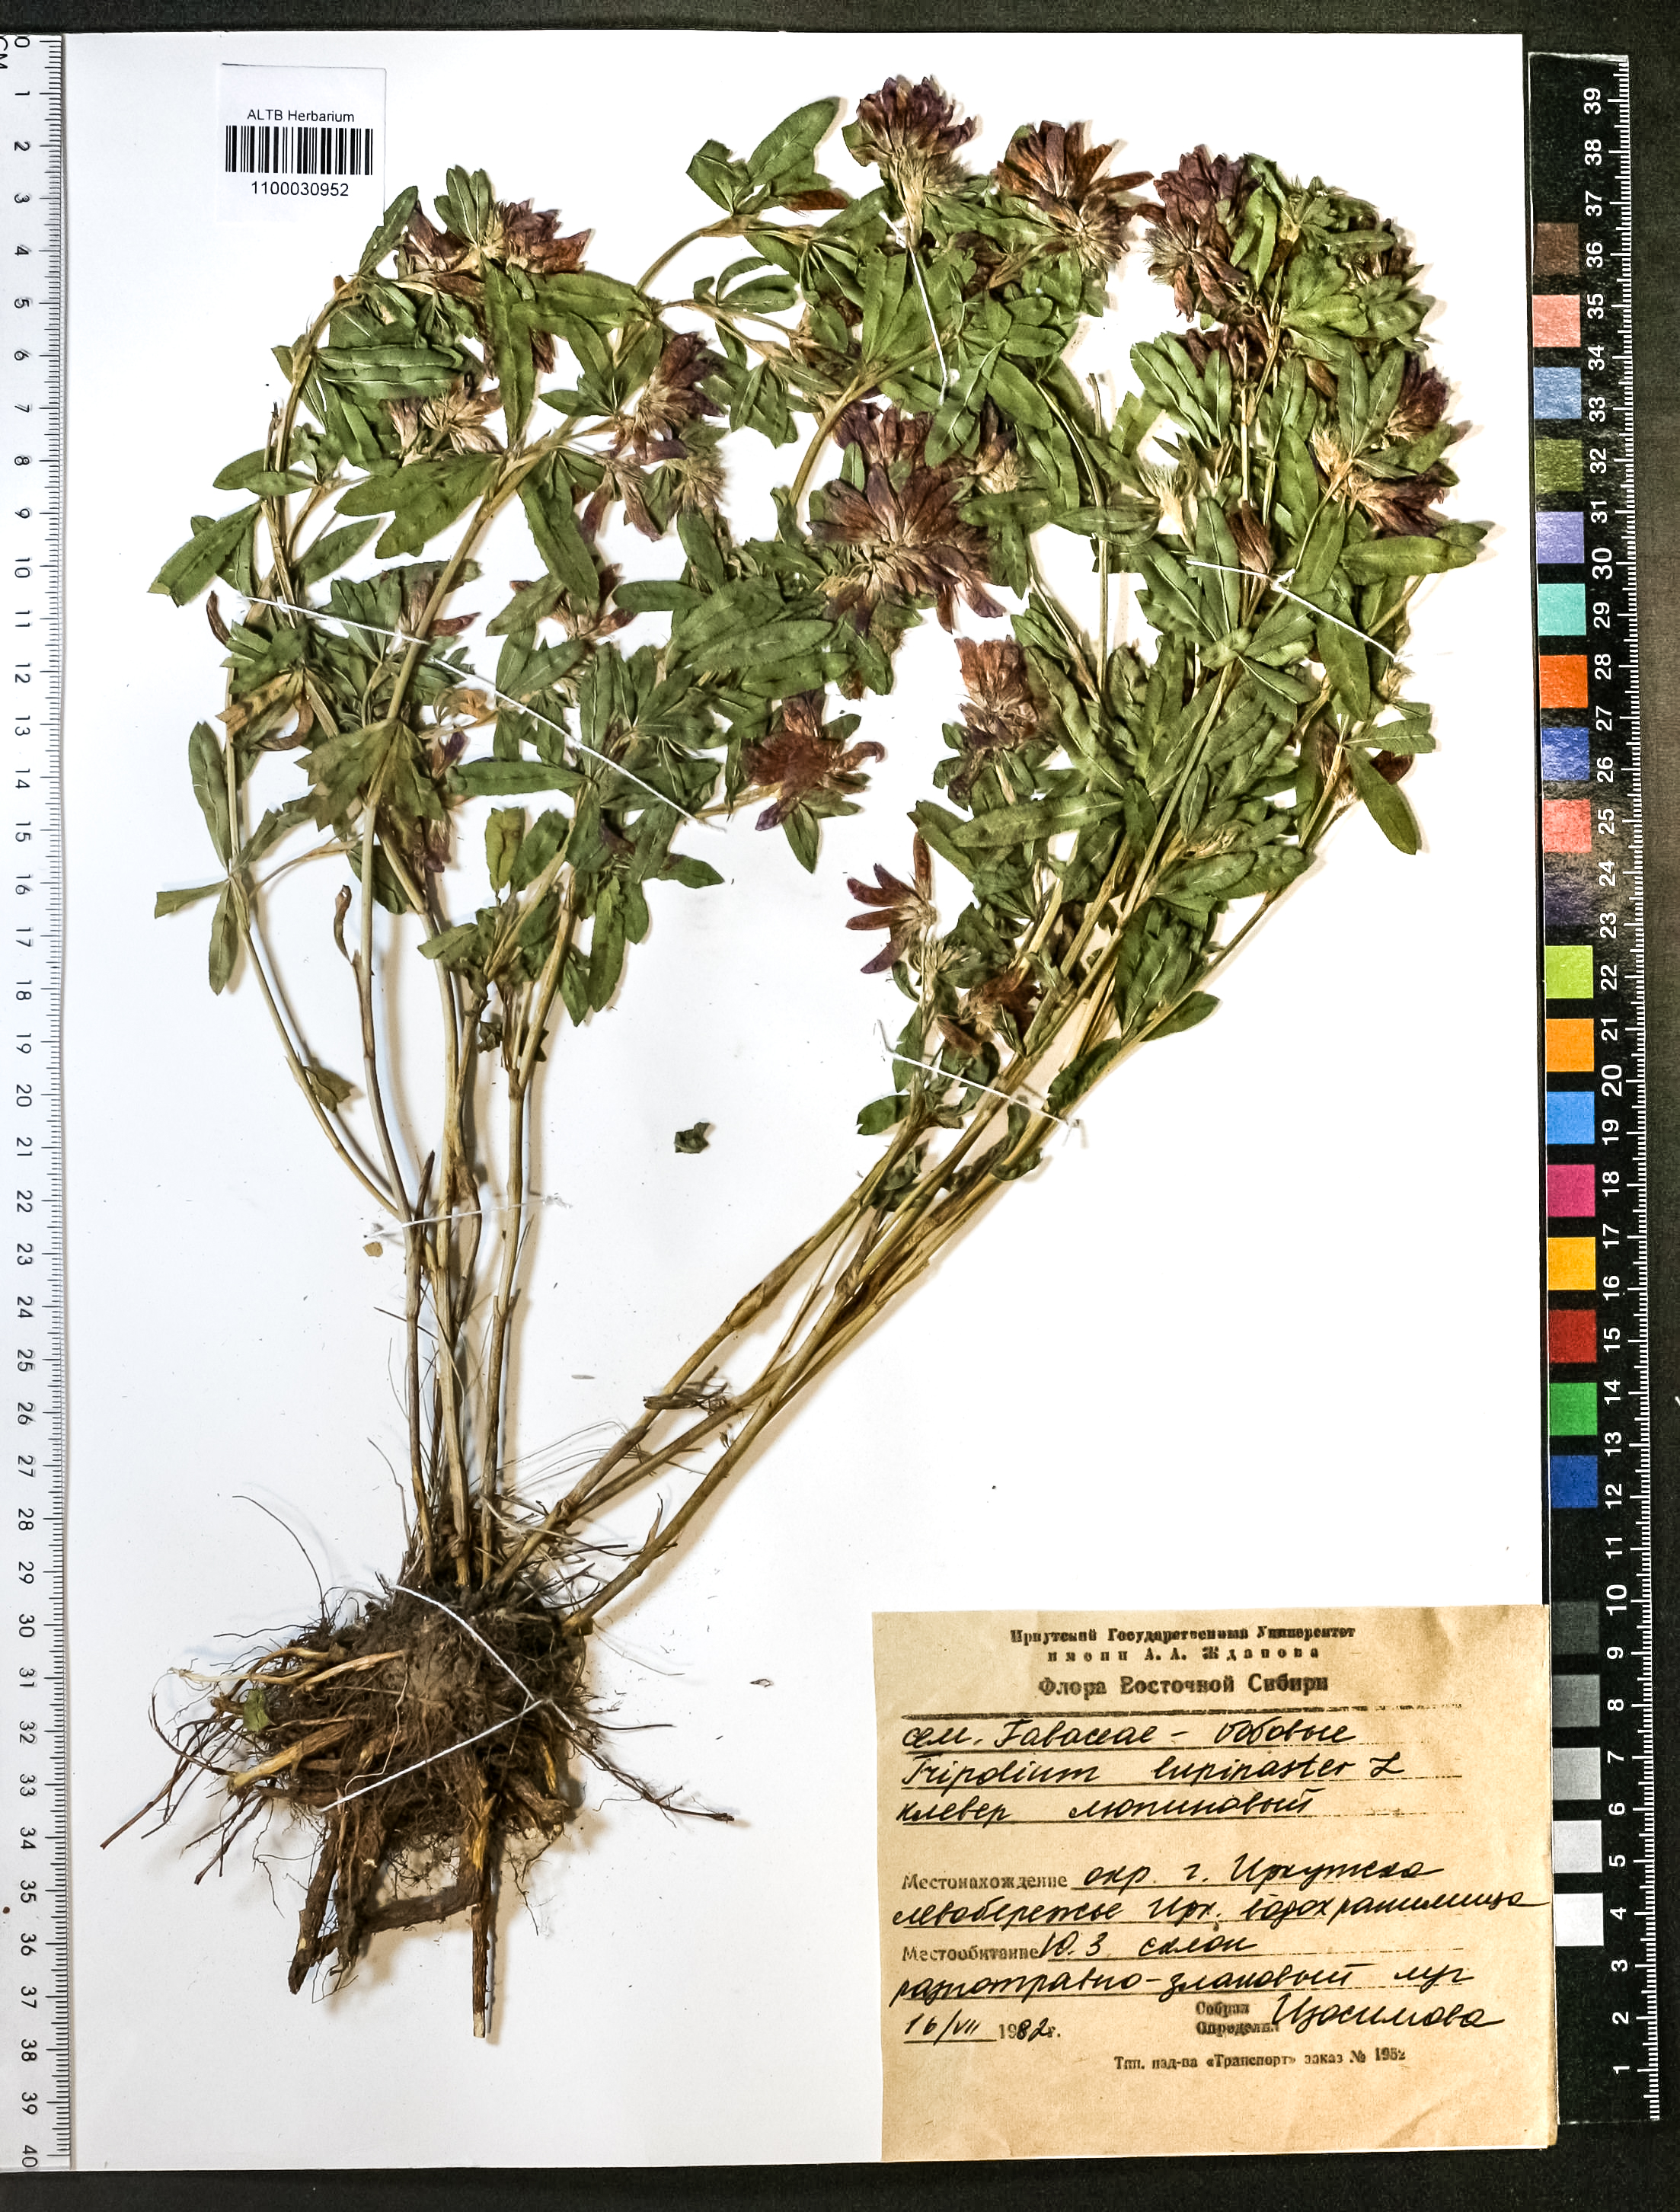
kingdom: Plantae
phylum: Tracheophyta
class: Magnoliopsida
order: Fabales
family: Fabaceae
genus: Trifolium
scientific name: Trifolium lupinaster
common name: Lupine clover
